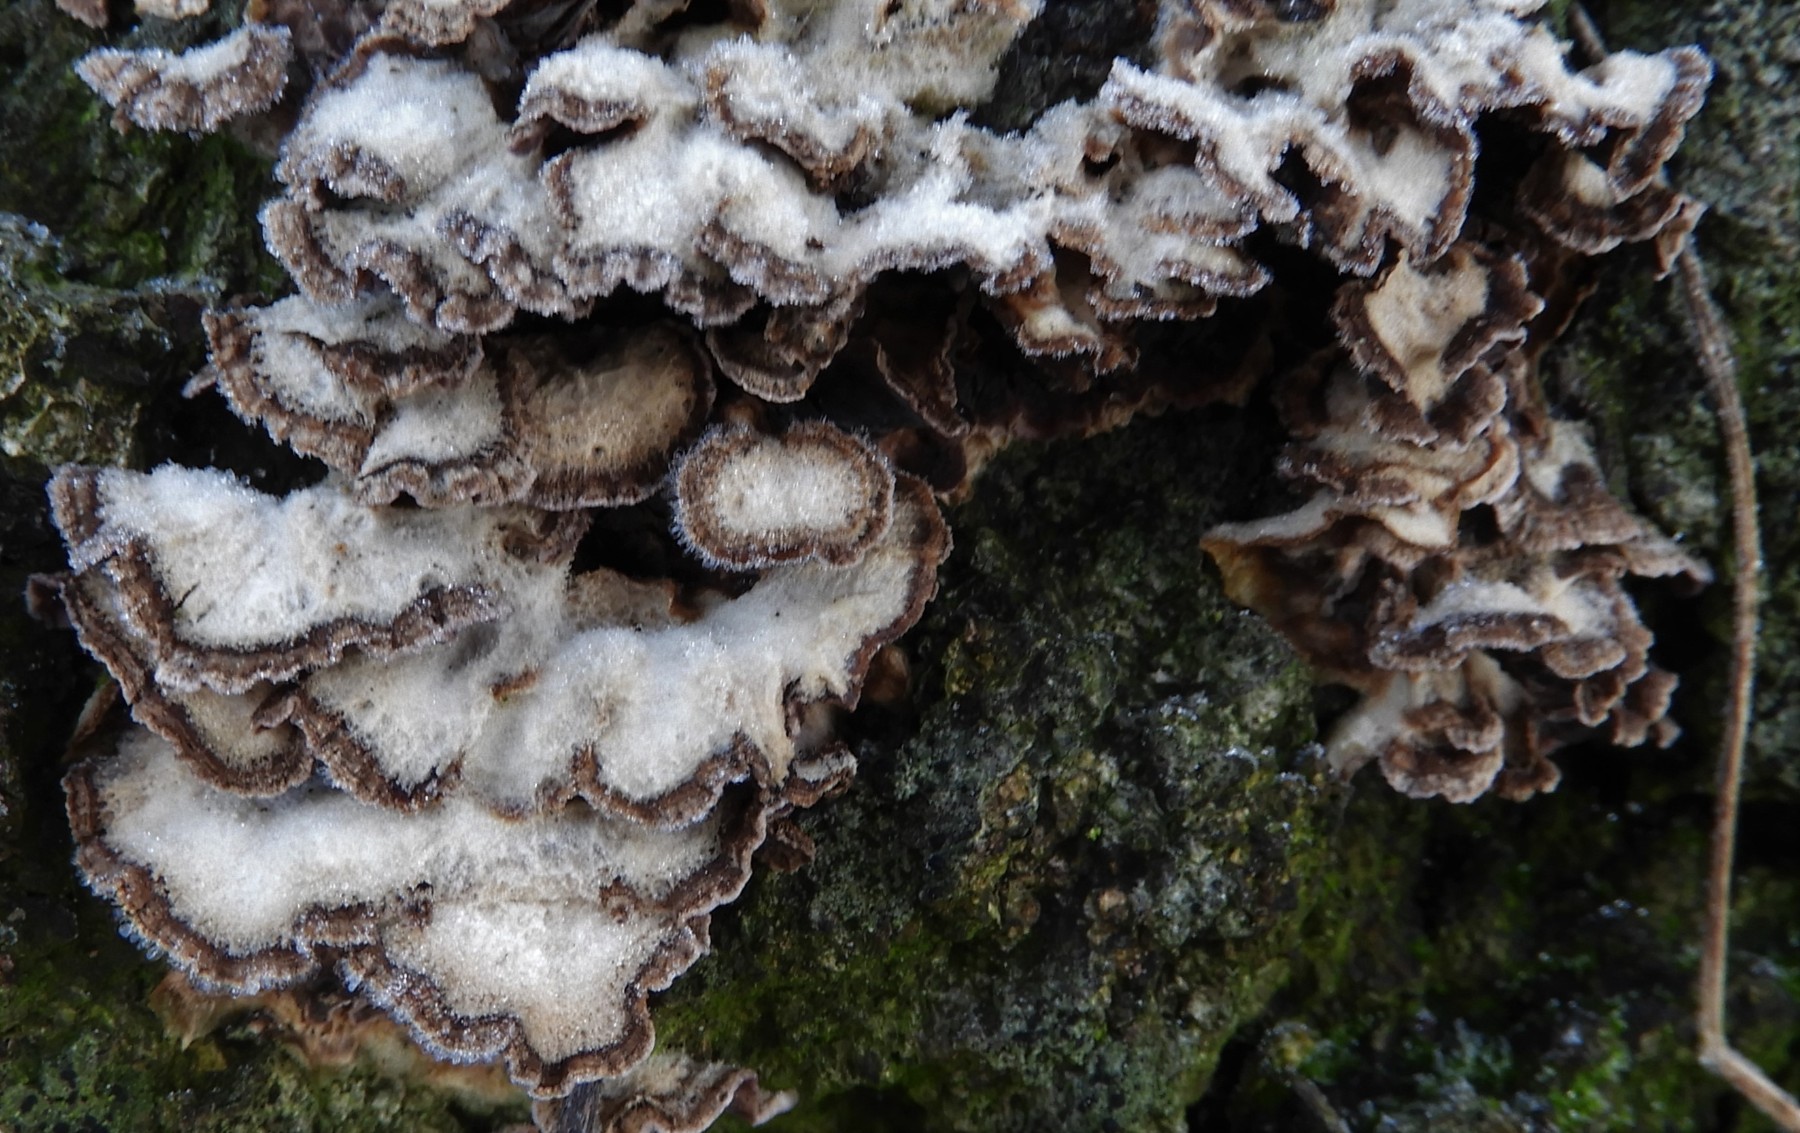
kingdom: Fungi
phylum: Basidiomycota
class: Agaricomycetes
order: Agaricales
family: Cyphellaceae
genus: Chondrostereum
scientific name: Chondrostereum purpureum
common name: purpurlædersvamp
